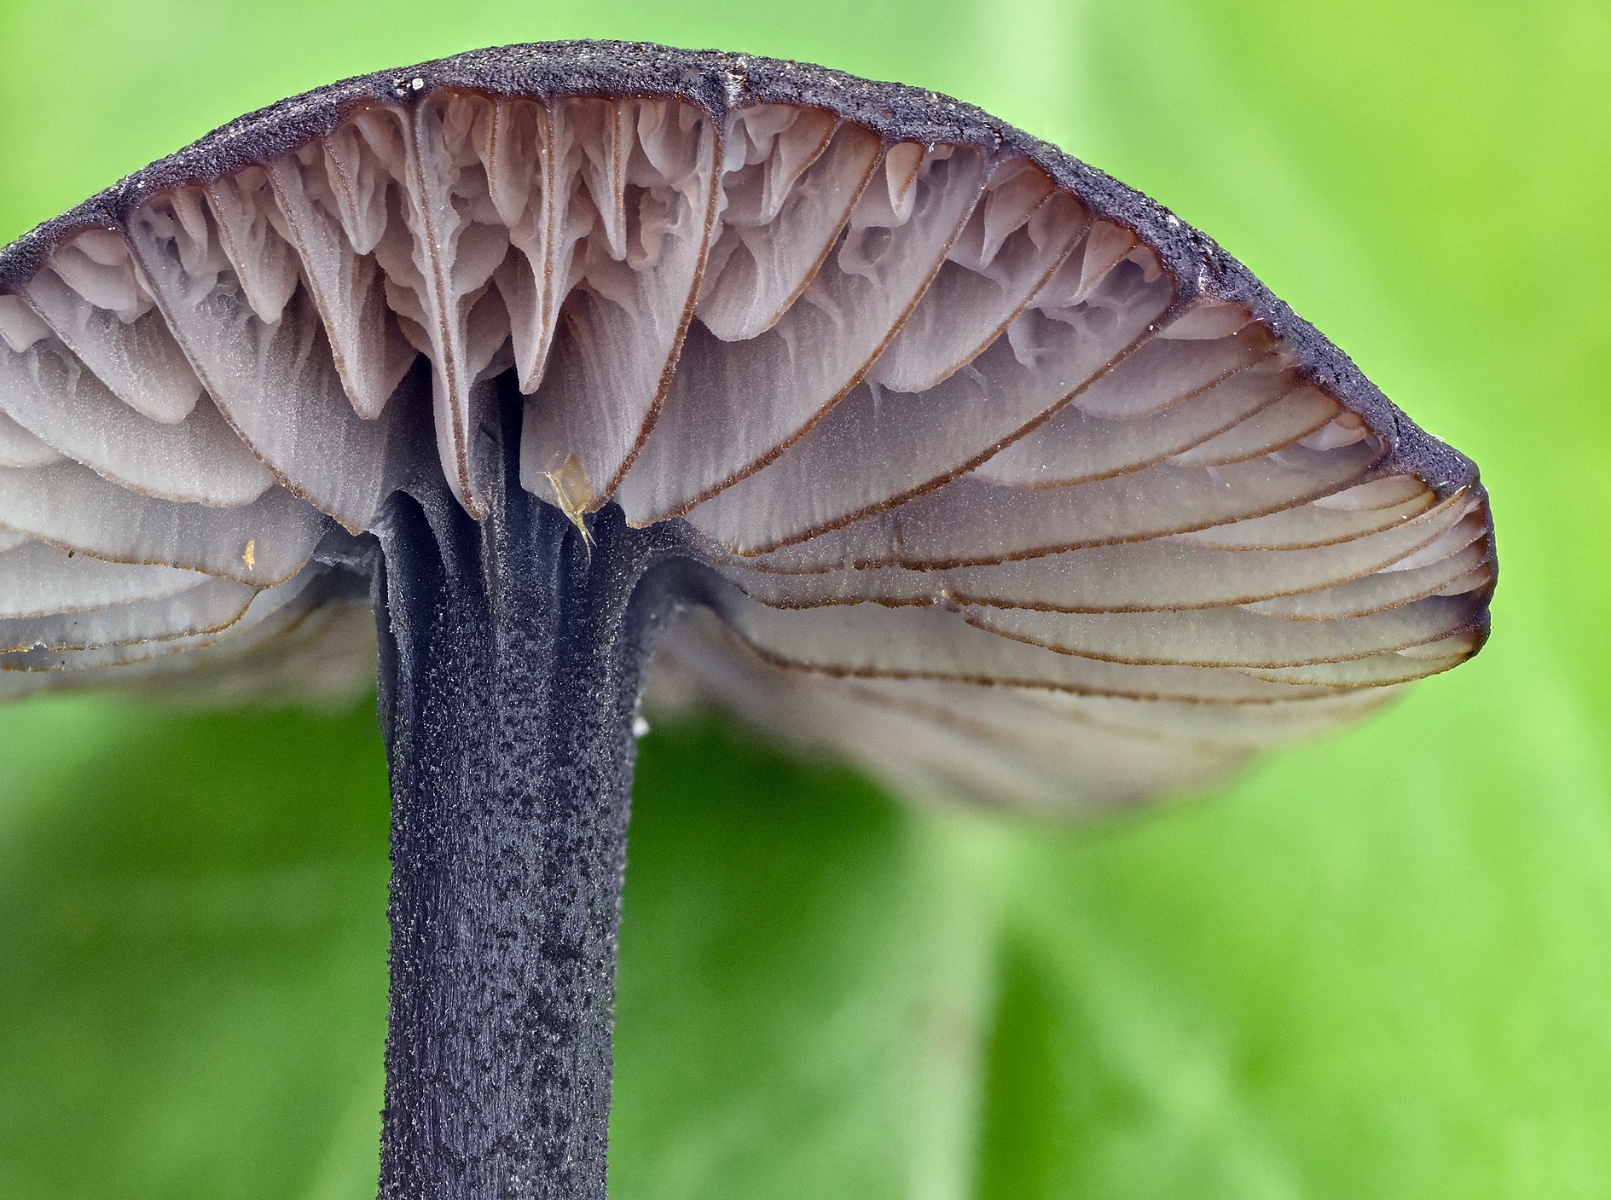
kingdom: Fungi
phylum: Basidiomycota
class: Agaricomycetes
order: Agaricales
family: Entolomataceae
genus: Entoloma
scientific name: Entoloma chalybeum
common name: blåbladet rødblad
